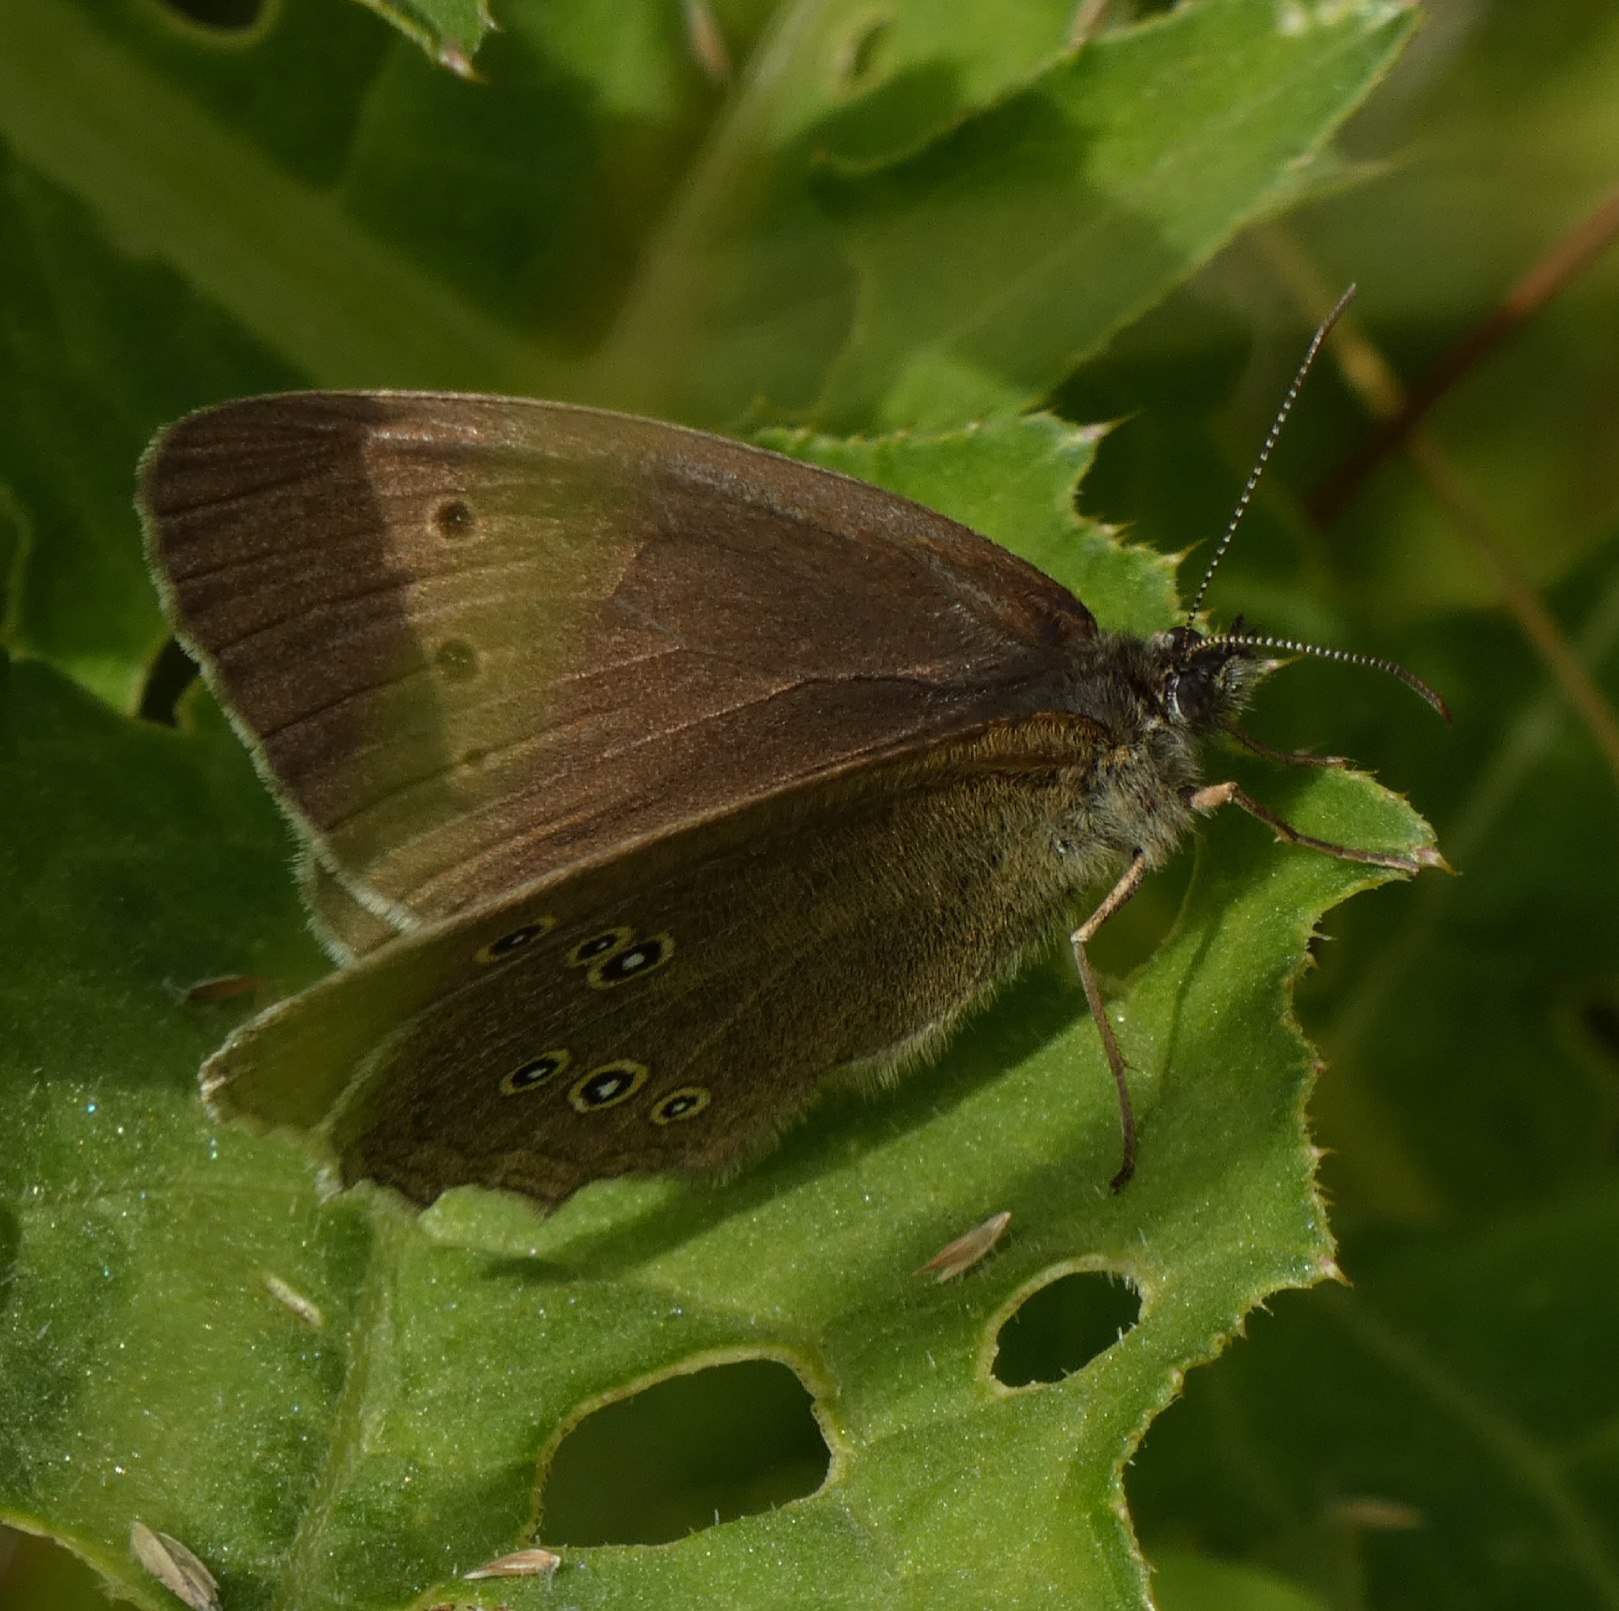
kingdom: Animalia
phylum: Arthropoda
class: Insecta
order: Lepidoptera
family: Nymphalidae
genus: Aphantopus
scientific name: Aphantopus hyperantus
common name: Engrandøje
